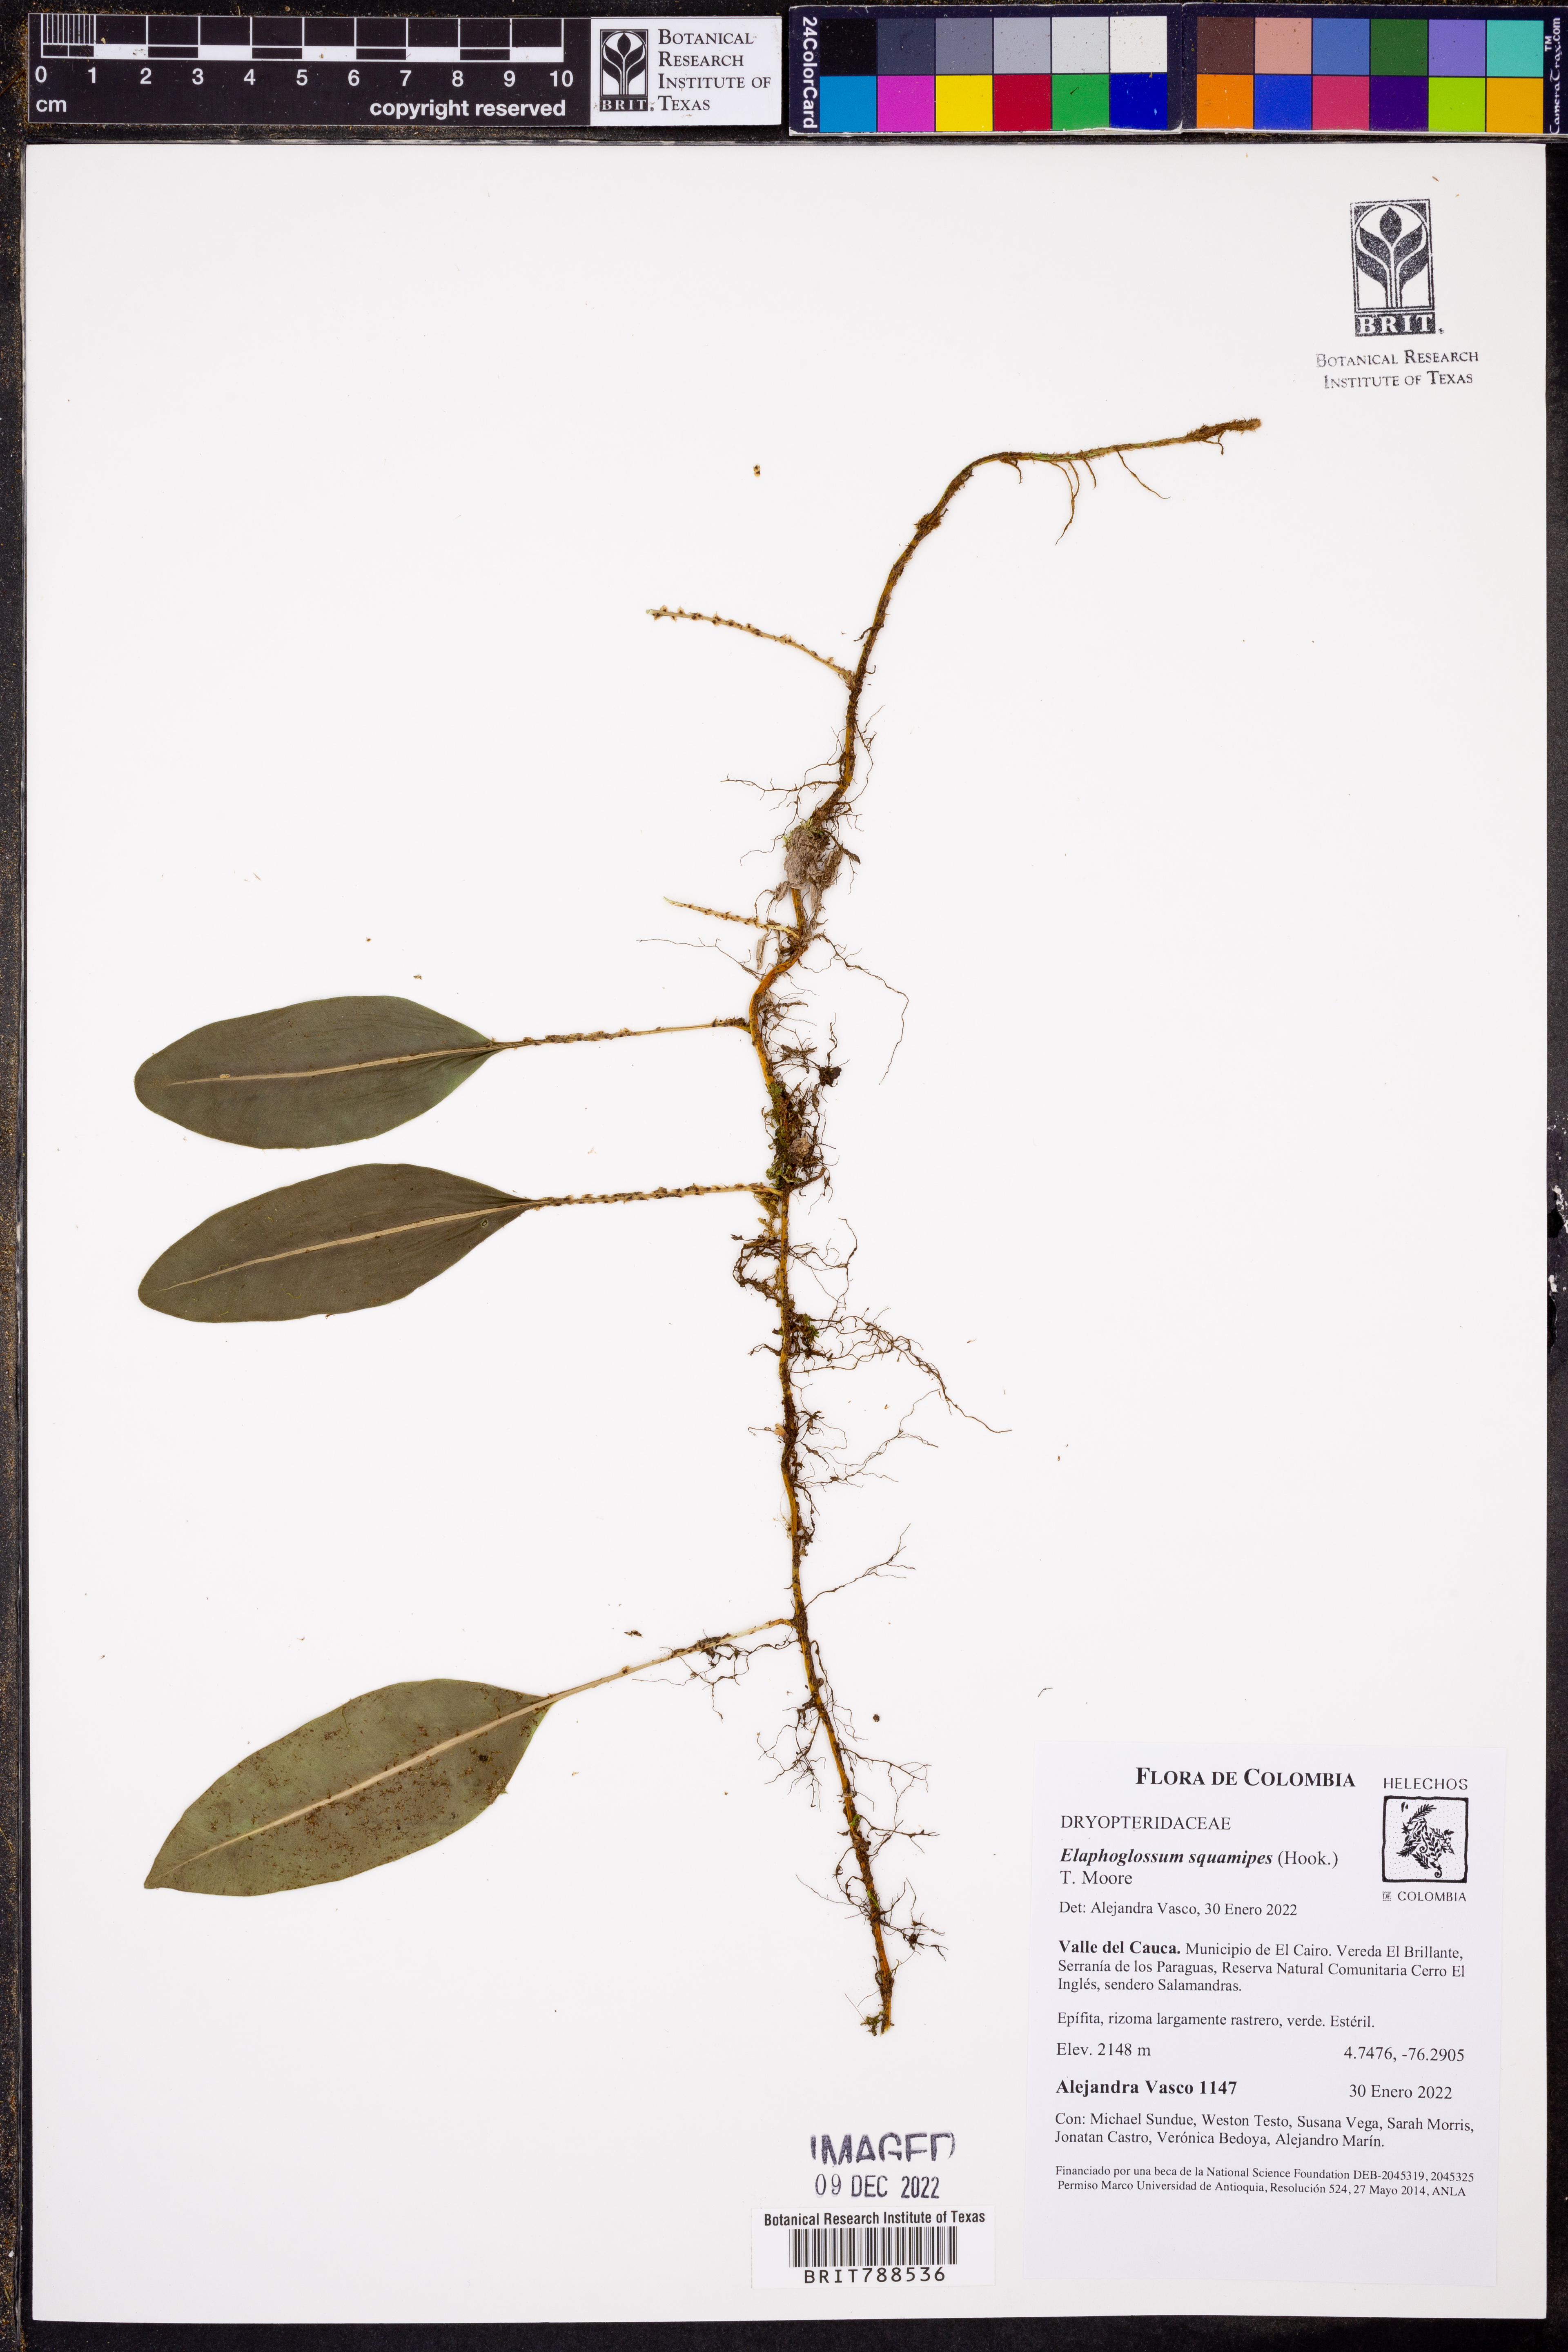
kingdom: Plantae
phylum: Tracheophyta
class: Polypodiopsida
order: Polypodiales
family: Dryopteridaceae
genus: Elaphoglossum
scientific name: Elaphoglossum lloense
